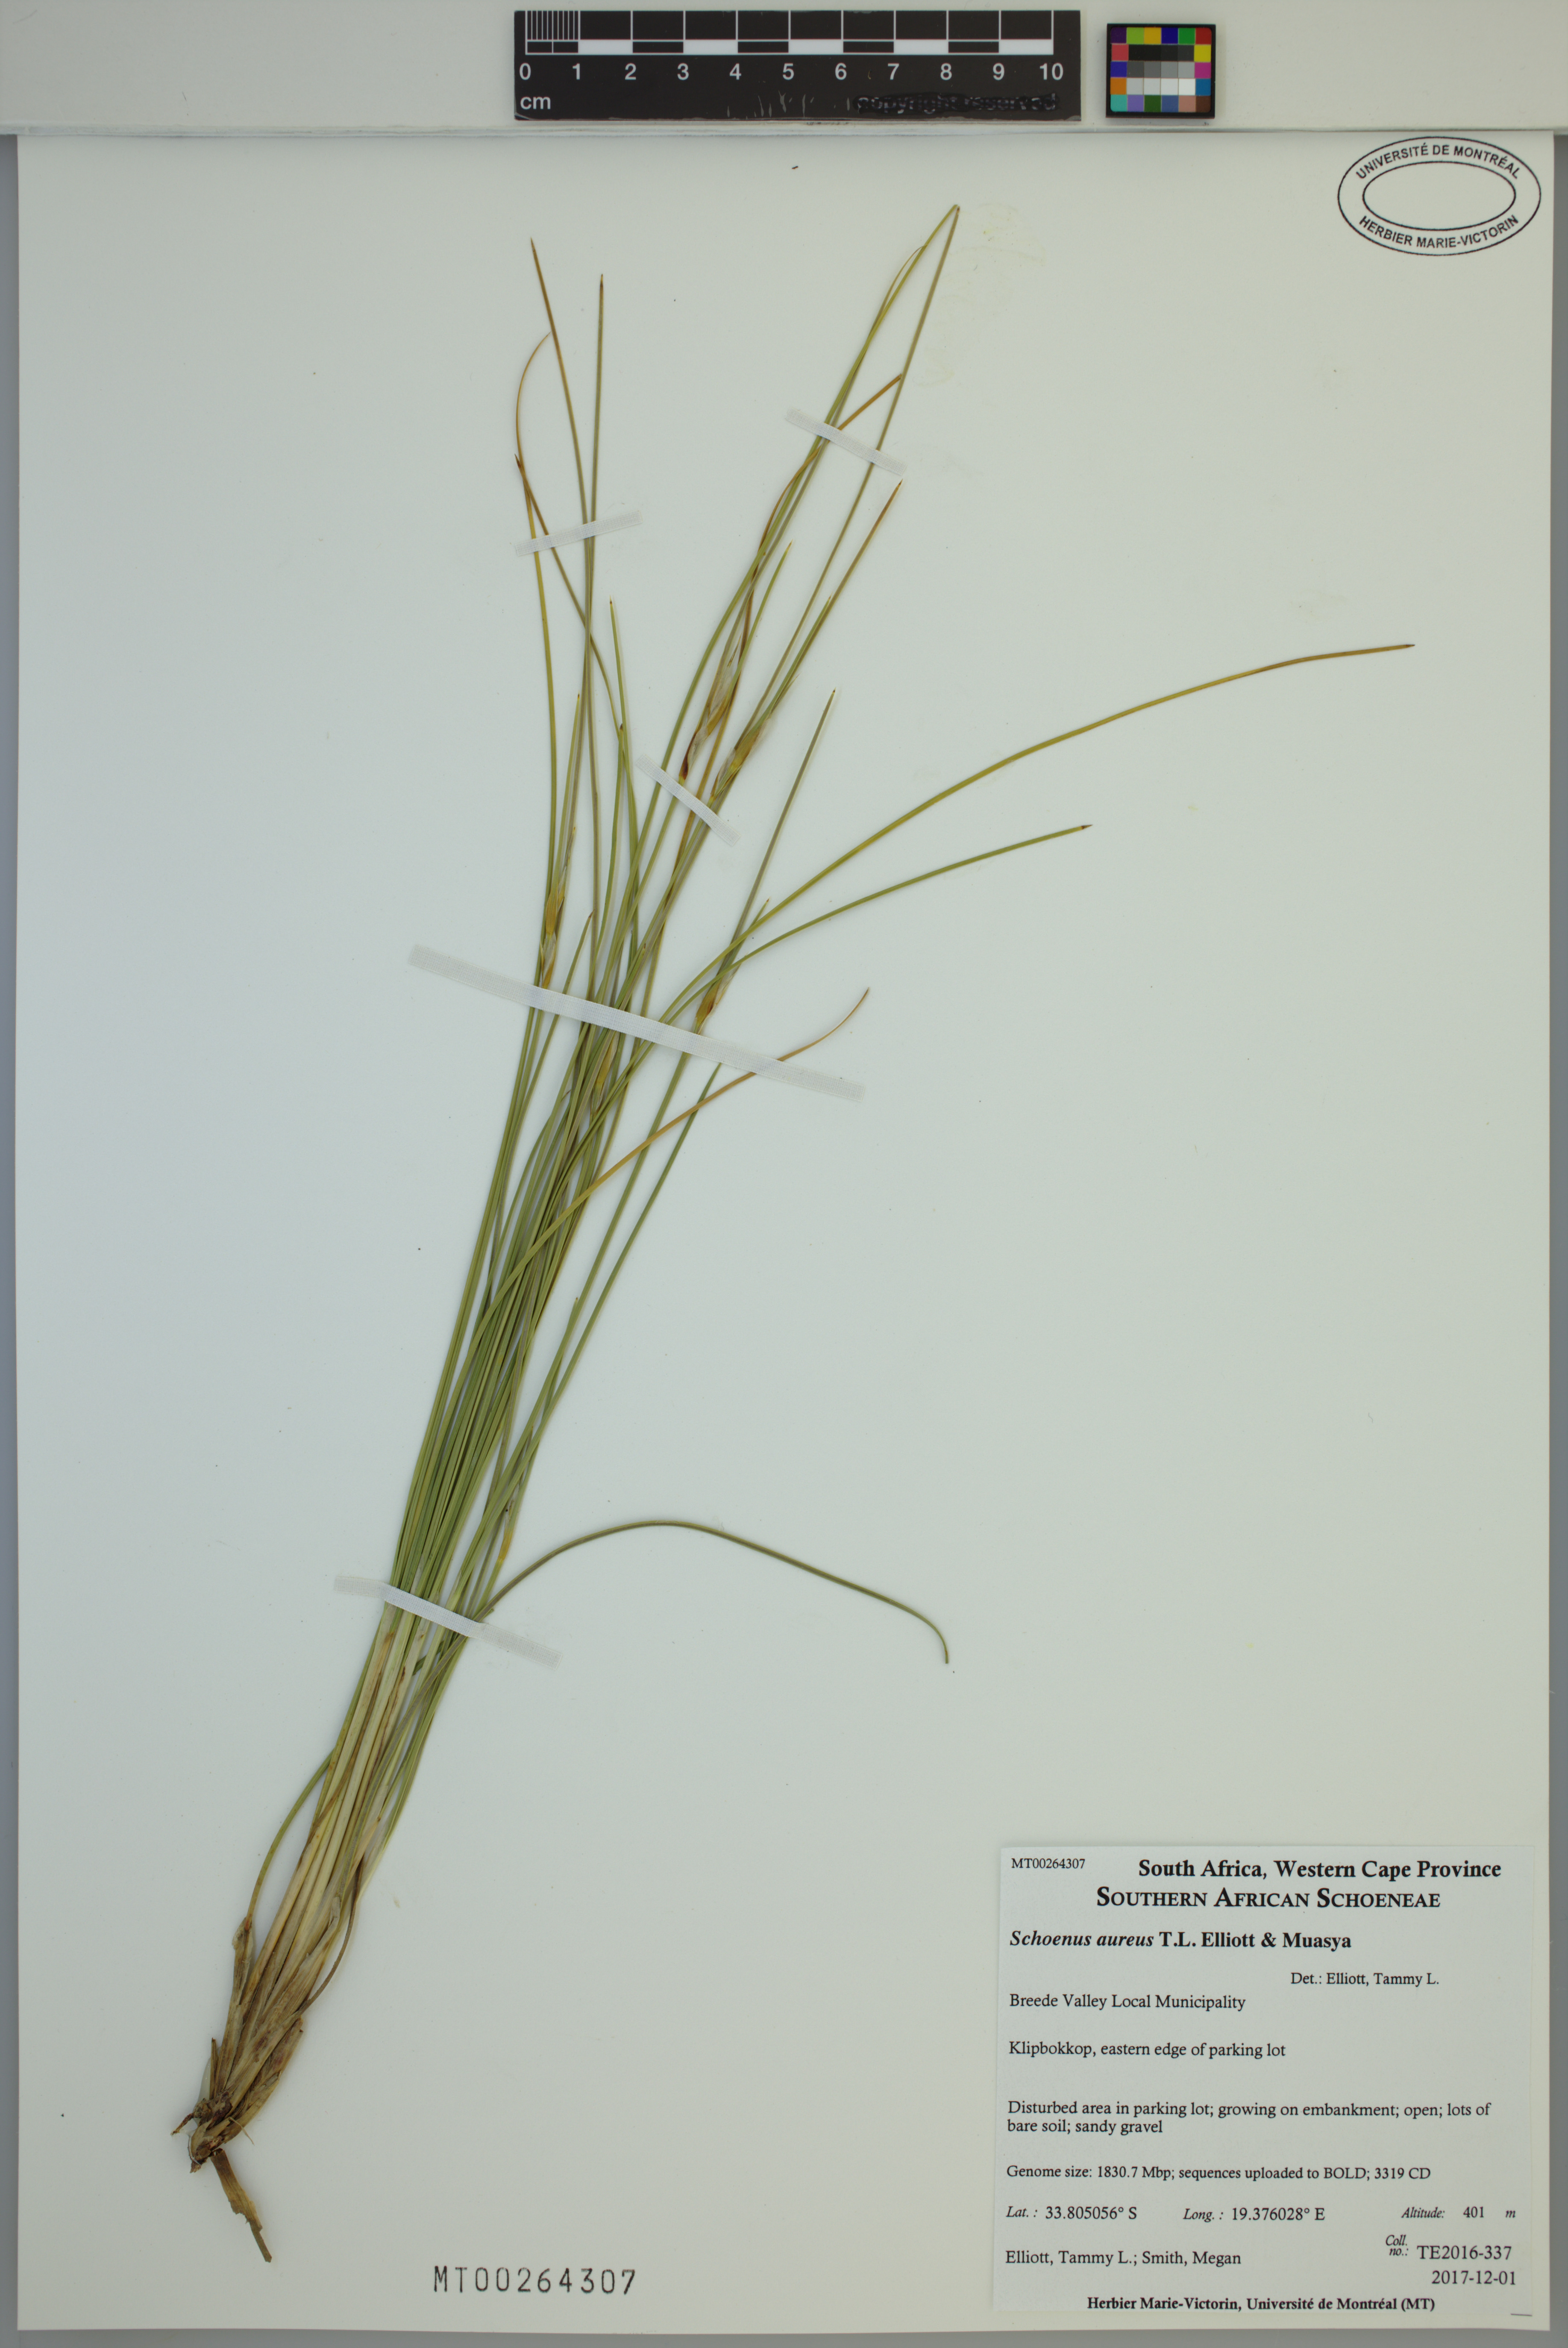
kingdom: Plantae
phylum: Tracheophyta
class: Liliopsida
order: Poales
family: Cyperaceae
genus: Schoenus
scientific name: Schoenus aureus
